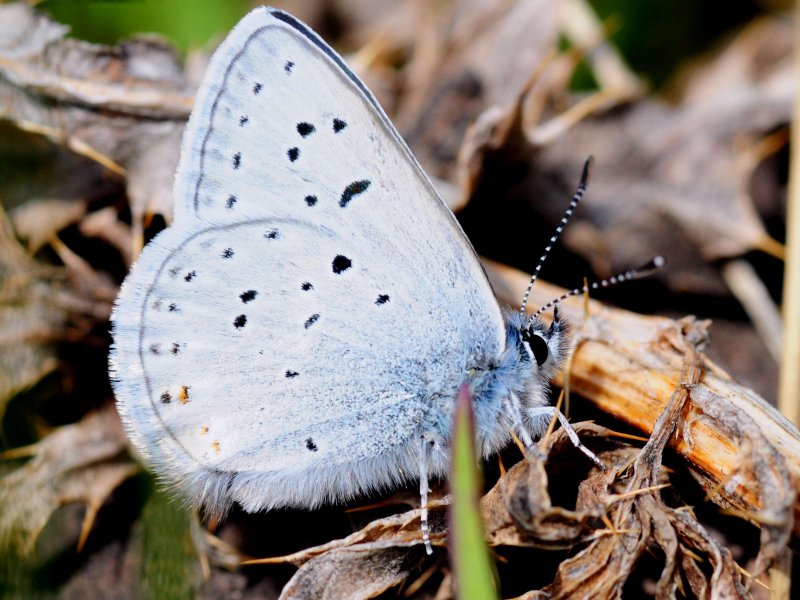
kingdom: Animalia
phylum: Arthropoda
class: Insecta
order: Lepidoptera
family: Lycaenidae
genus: Plebejus
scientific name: Plebejus saepiolus
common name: Greenish Blue
